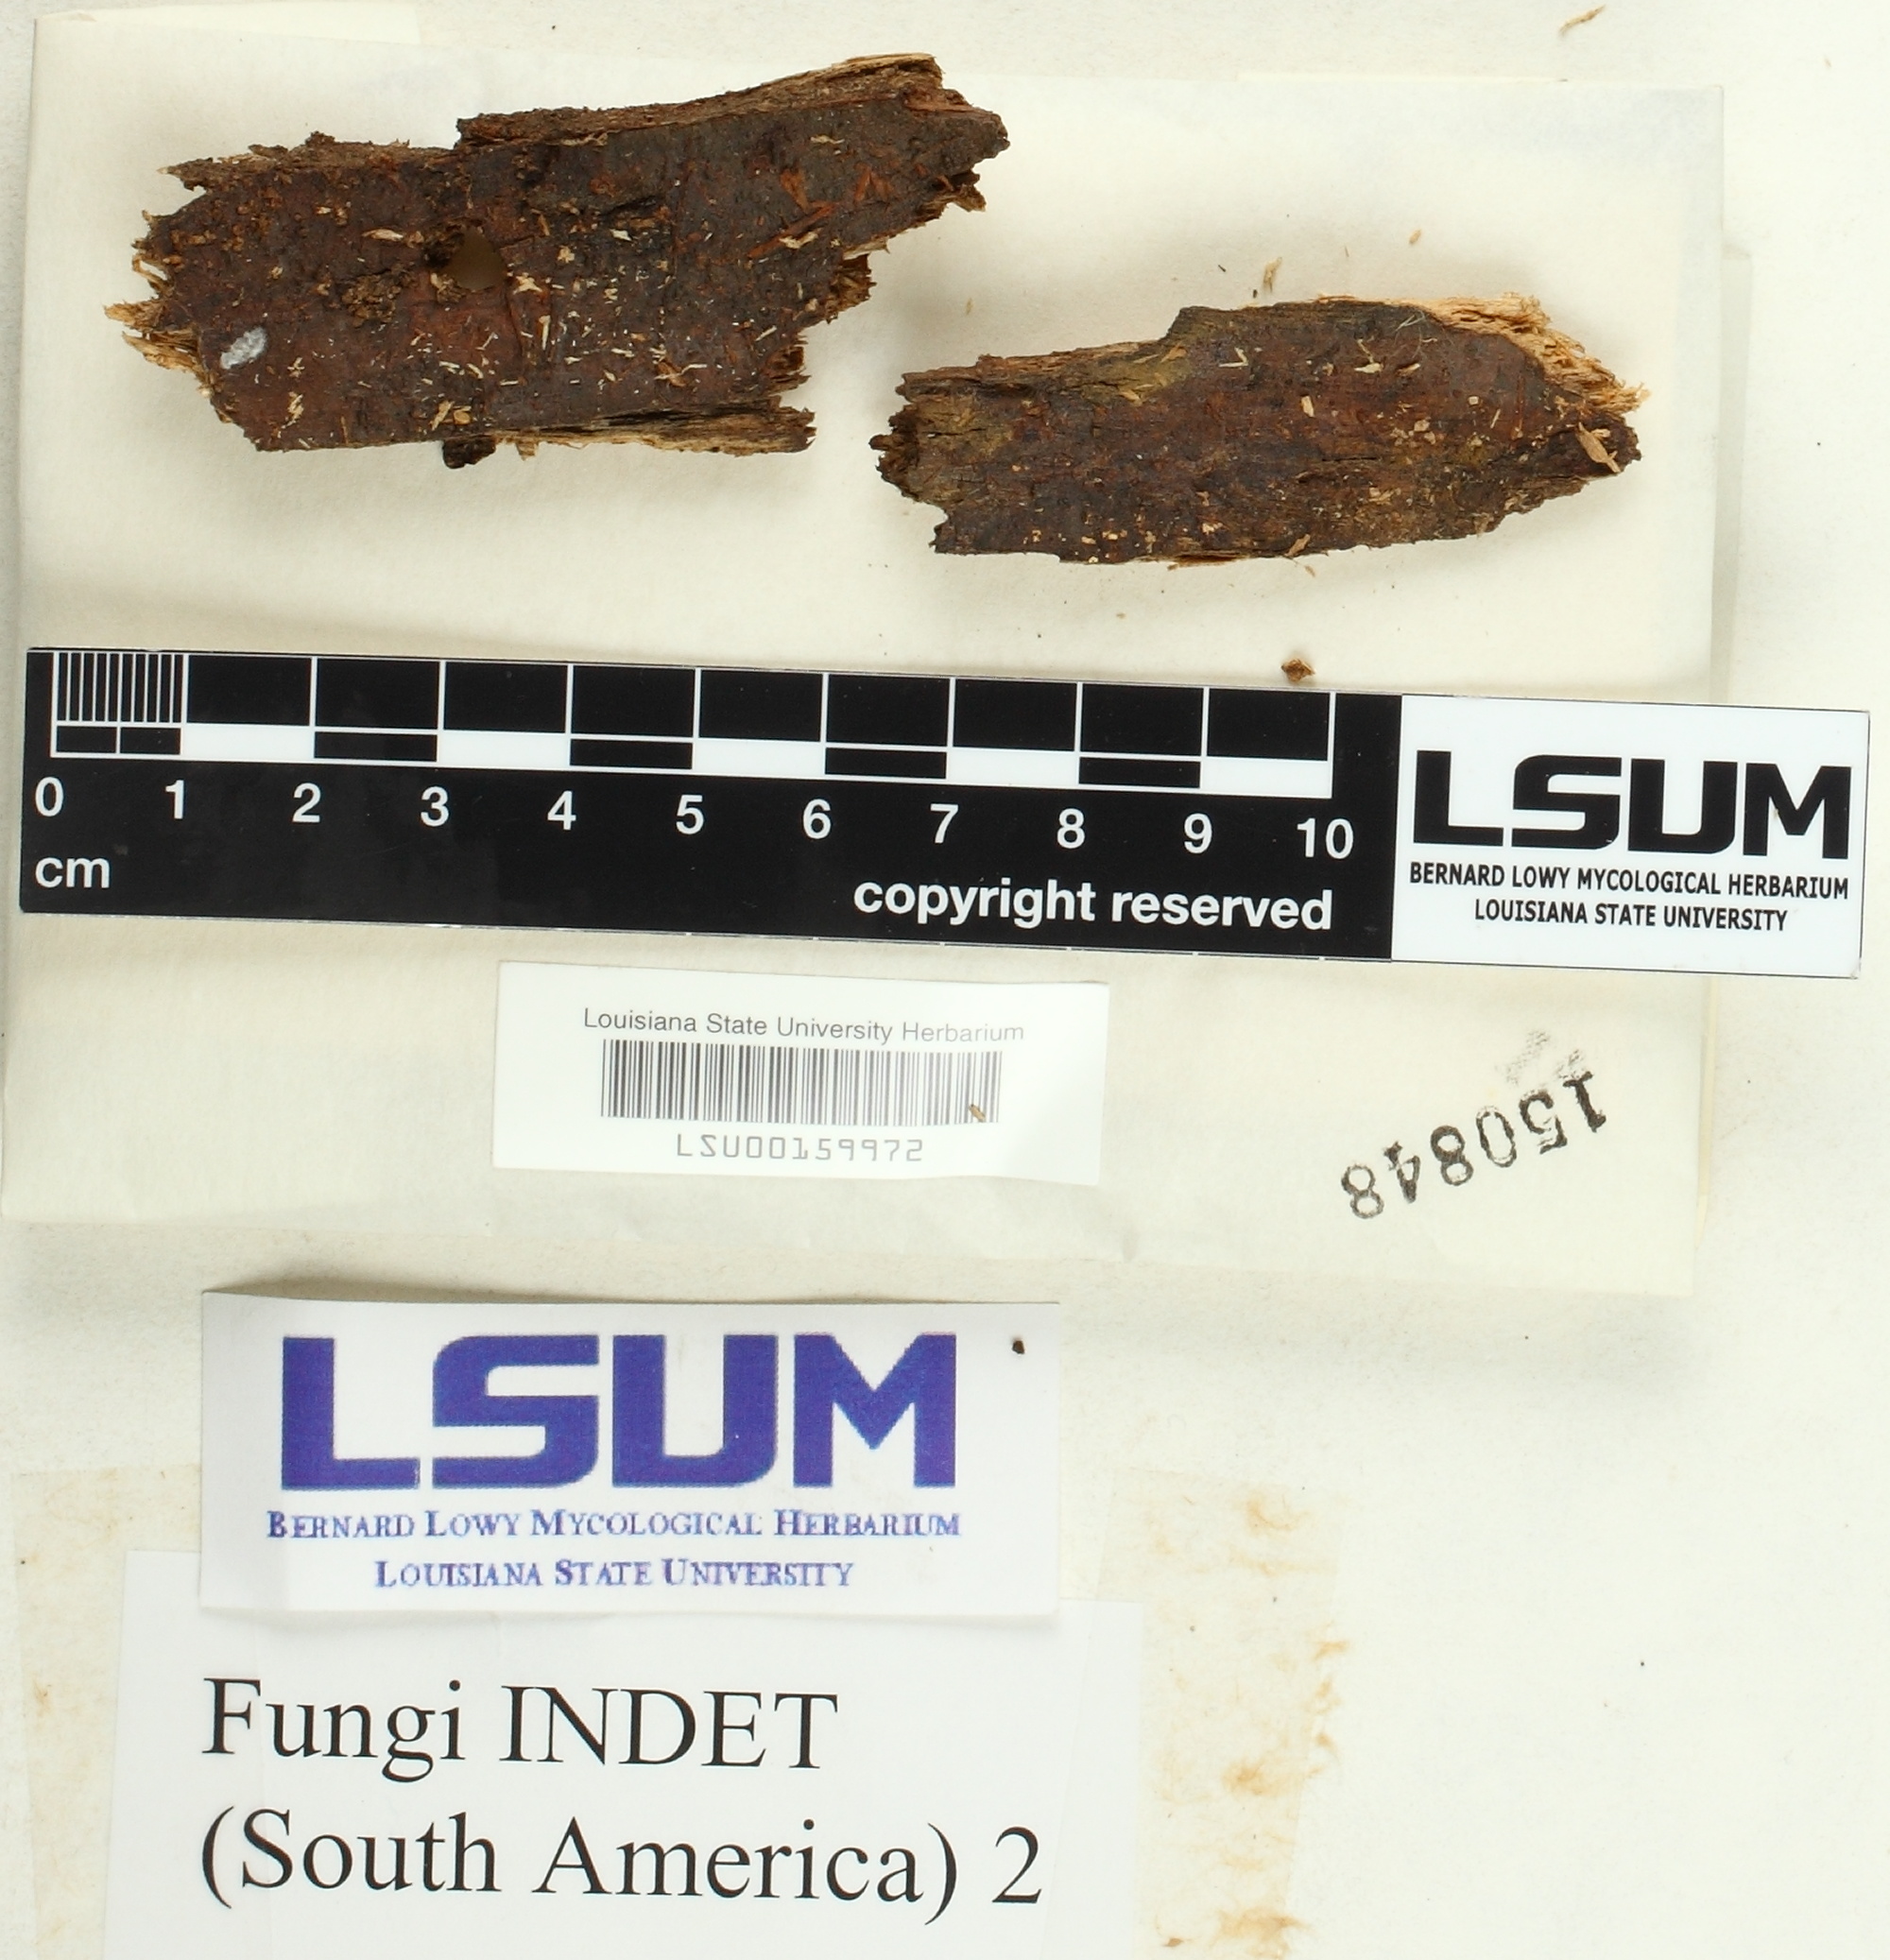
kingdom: Fungi
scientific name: Fungi
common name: Fungi
